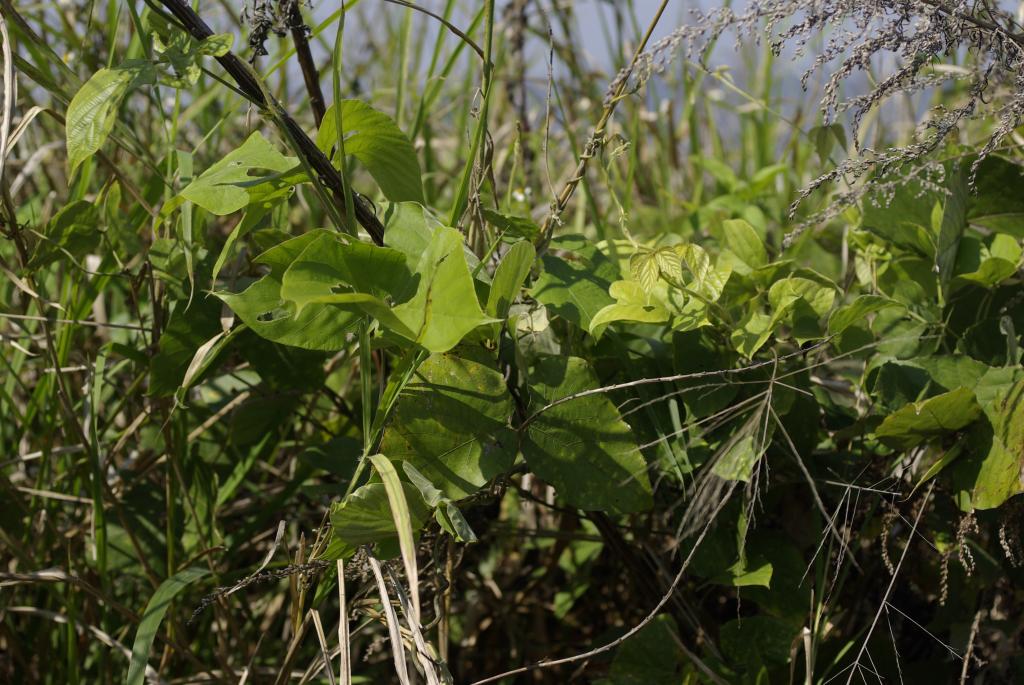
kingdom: Plantae
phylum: Tracheophyta
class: Magnoliopsida
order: Fabales
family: Fabaceae
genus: Pueraria
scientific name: Pueraria montana
